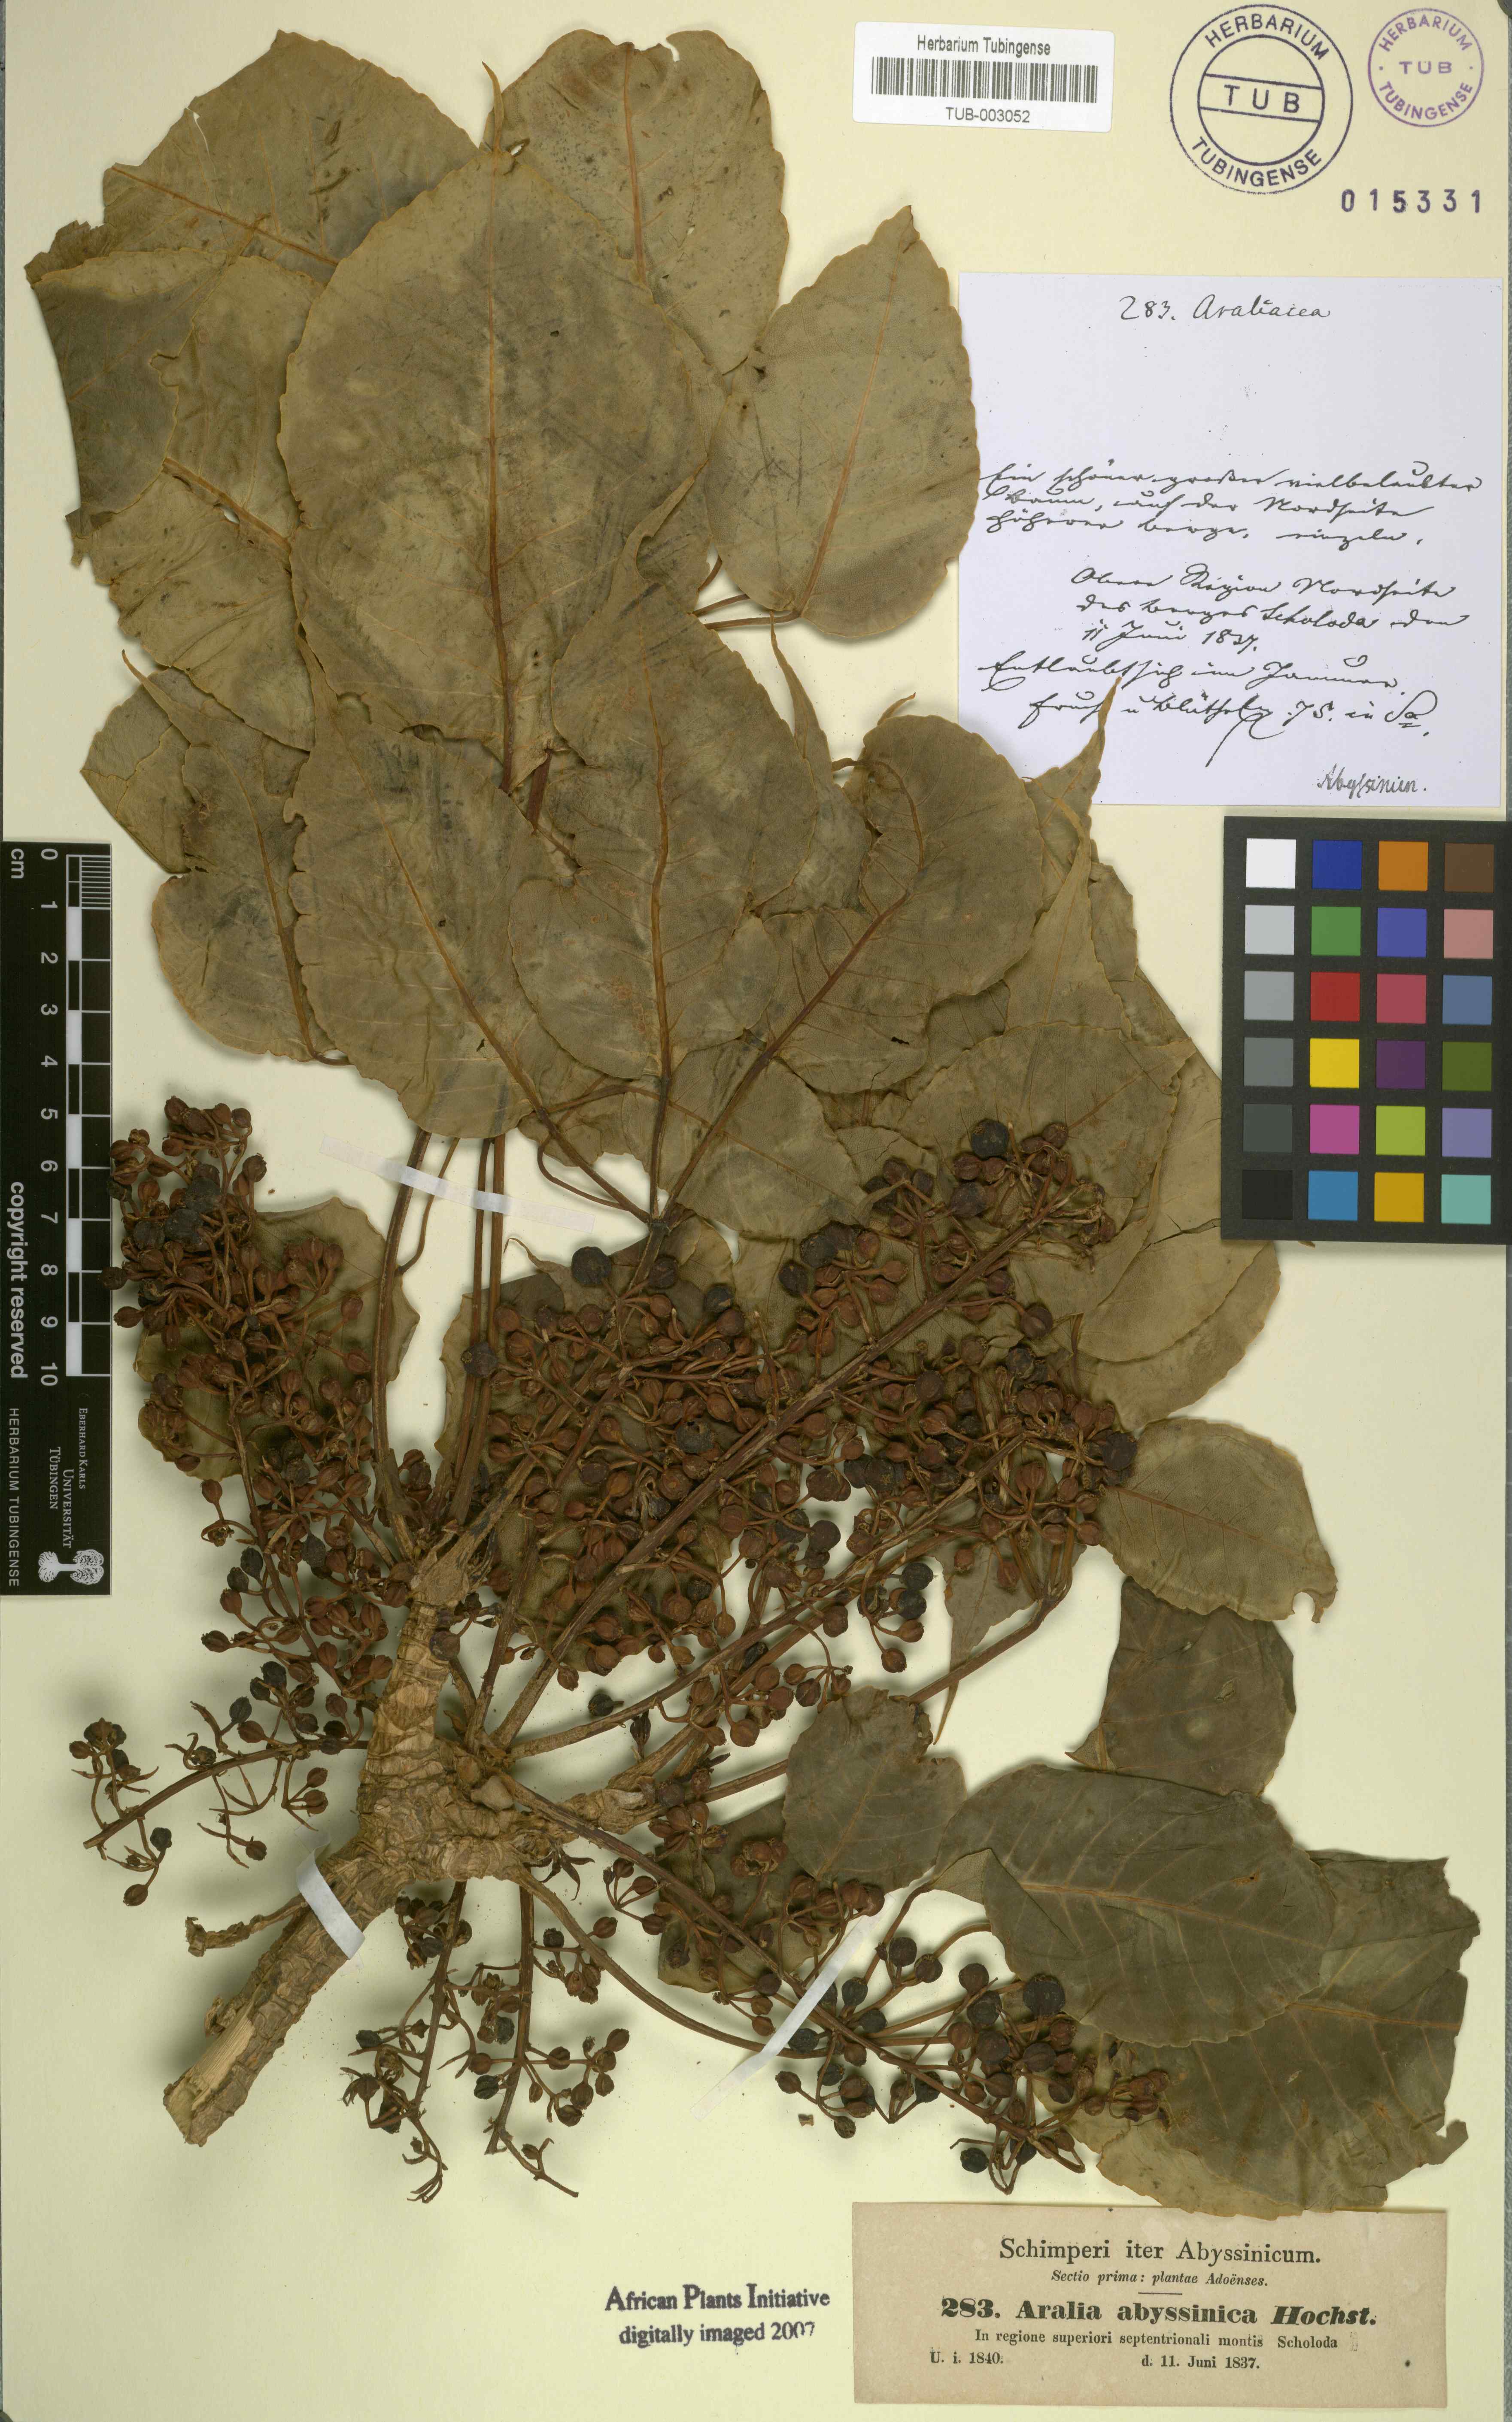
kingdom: Plantae
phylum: Tracheophyta
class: Magnoliopsida
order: Apiales
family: Araliaceae
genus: Heptapleurum
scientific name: Heptapleurum abyssinicum
